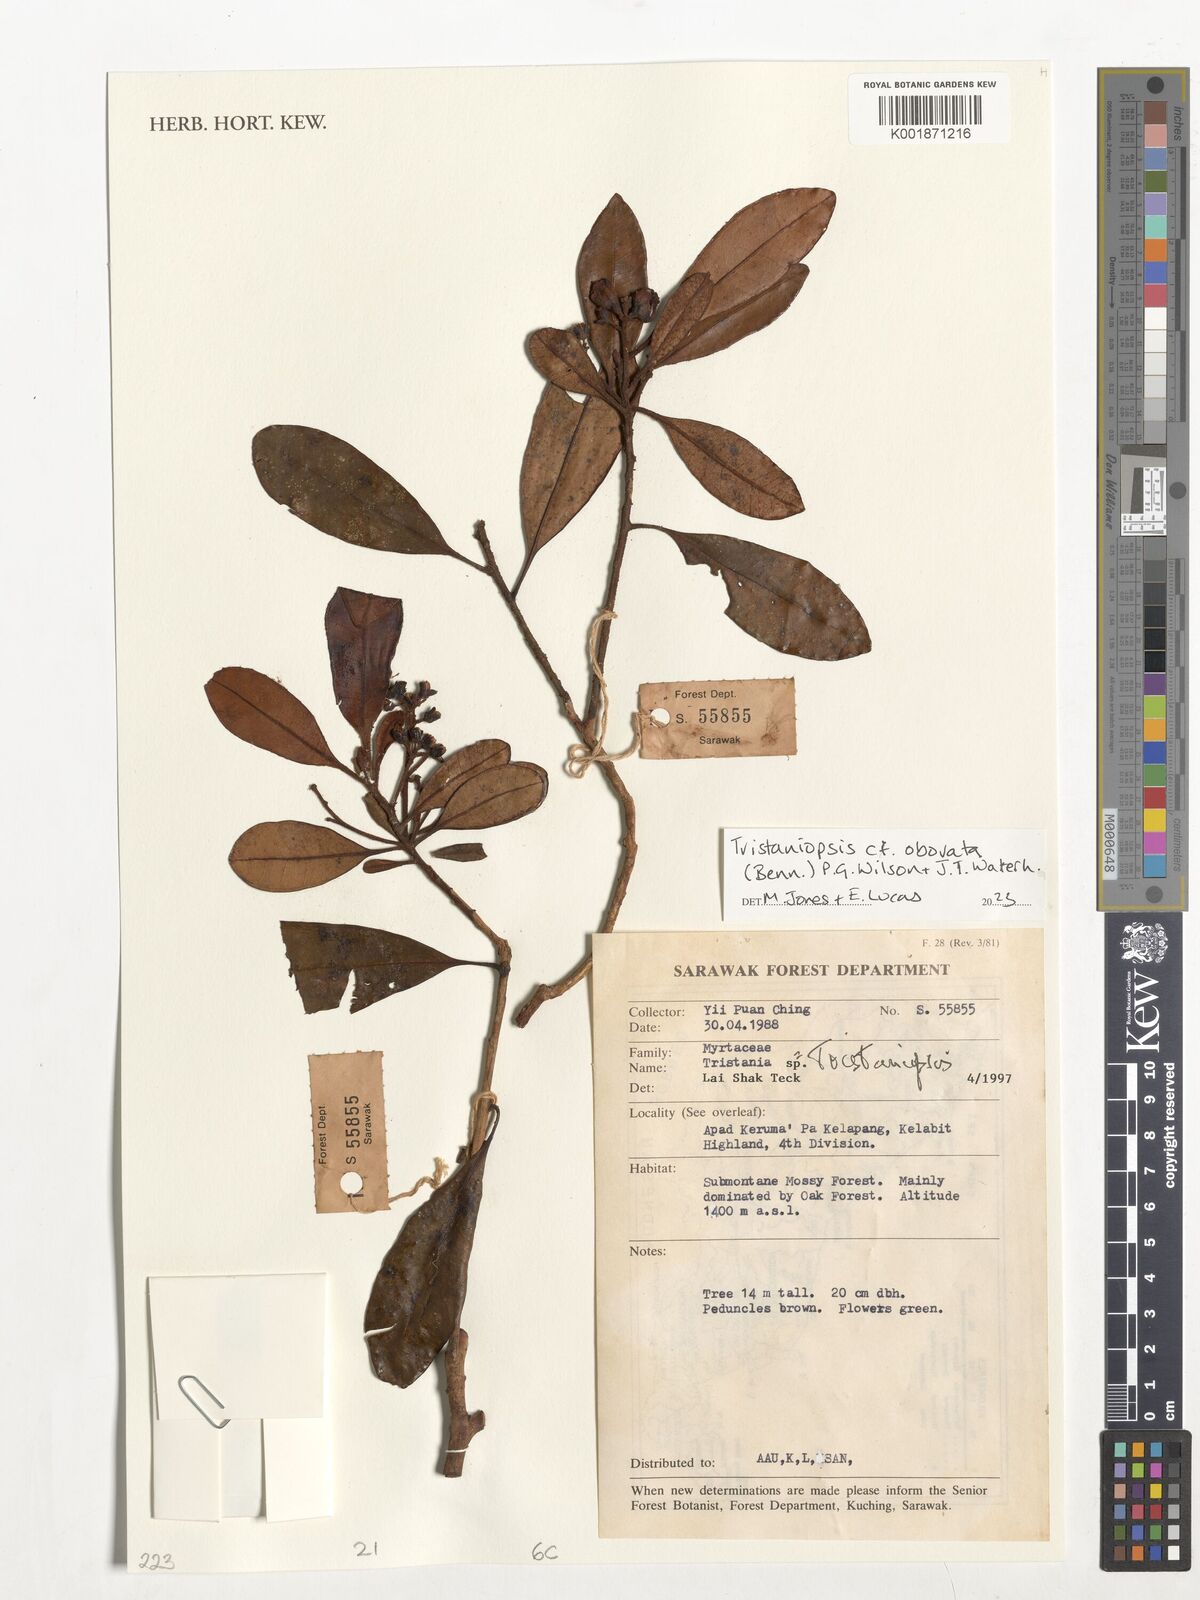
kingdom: Plantae
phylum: Tracheophyta
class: Magnoliopsida
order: Myrtales
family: Myrtaceae
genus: Tristaniopsis
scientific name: Tristaniopsis obovata
